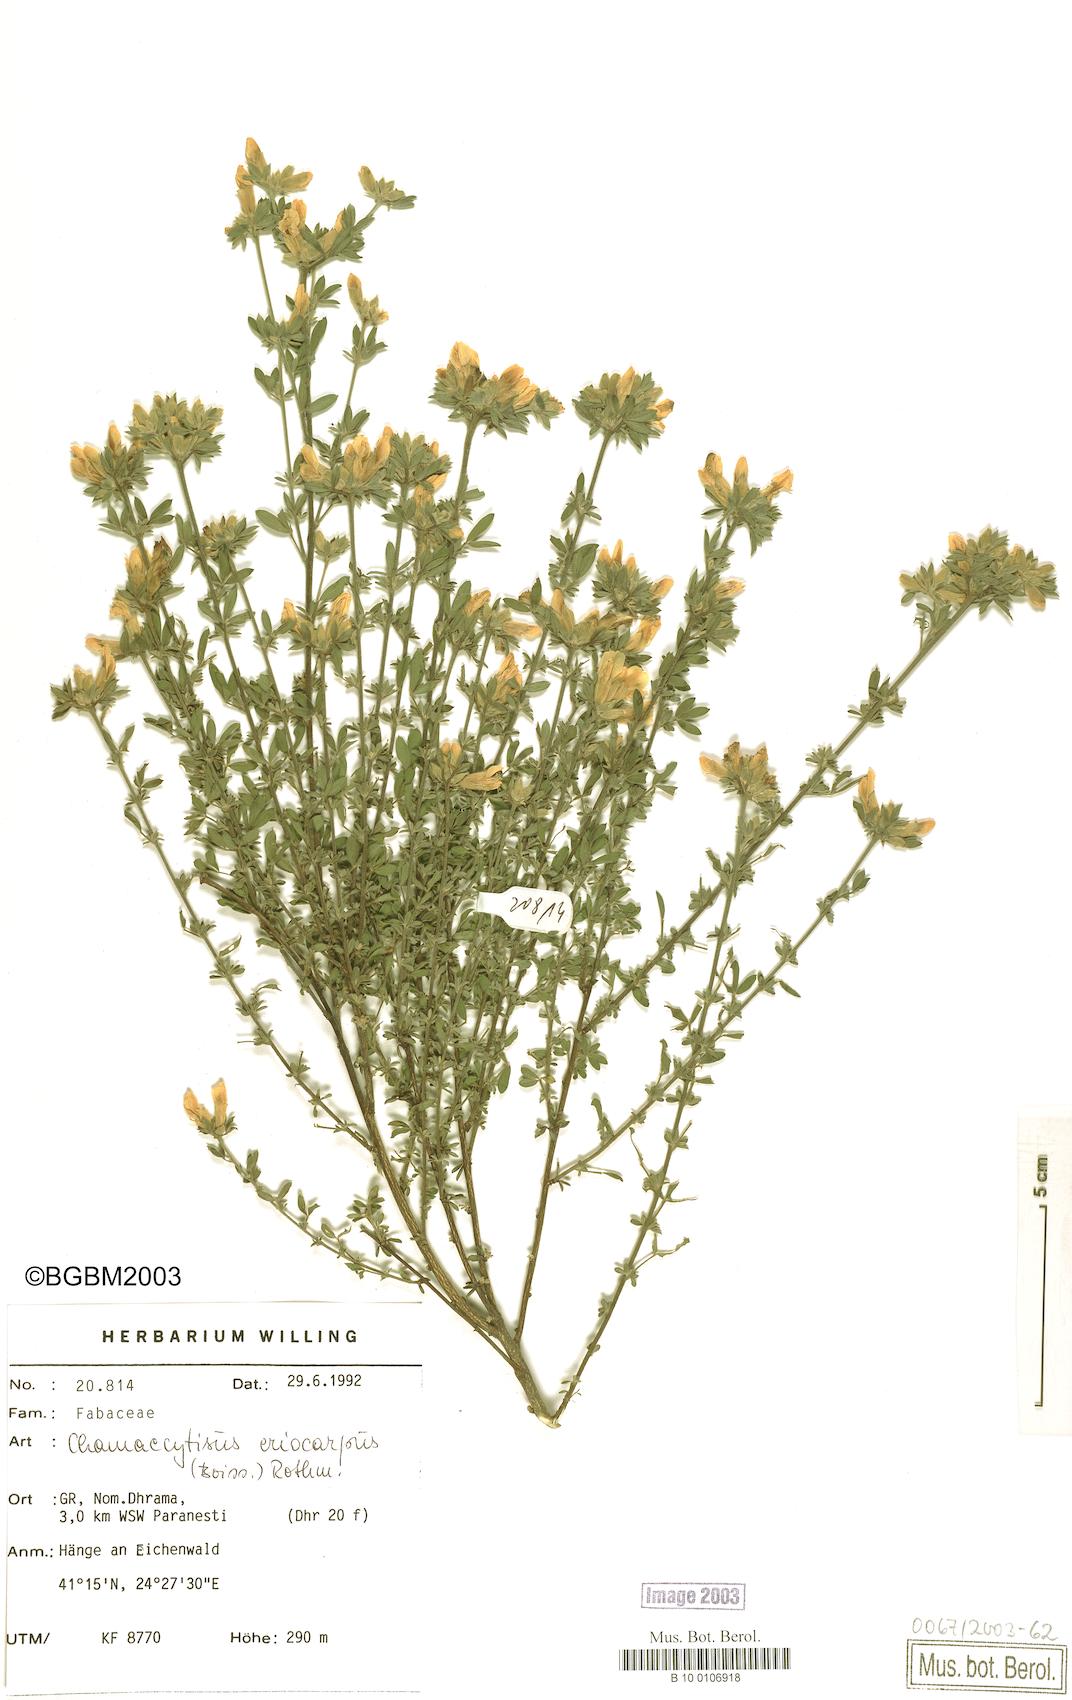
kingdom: Plantae
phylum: Tracheophyta
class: Magnoliopsida
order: Fabales
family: Fabaceae
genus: Chamaecytisus
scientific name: Chamaecytisus eriocarpus
